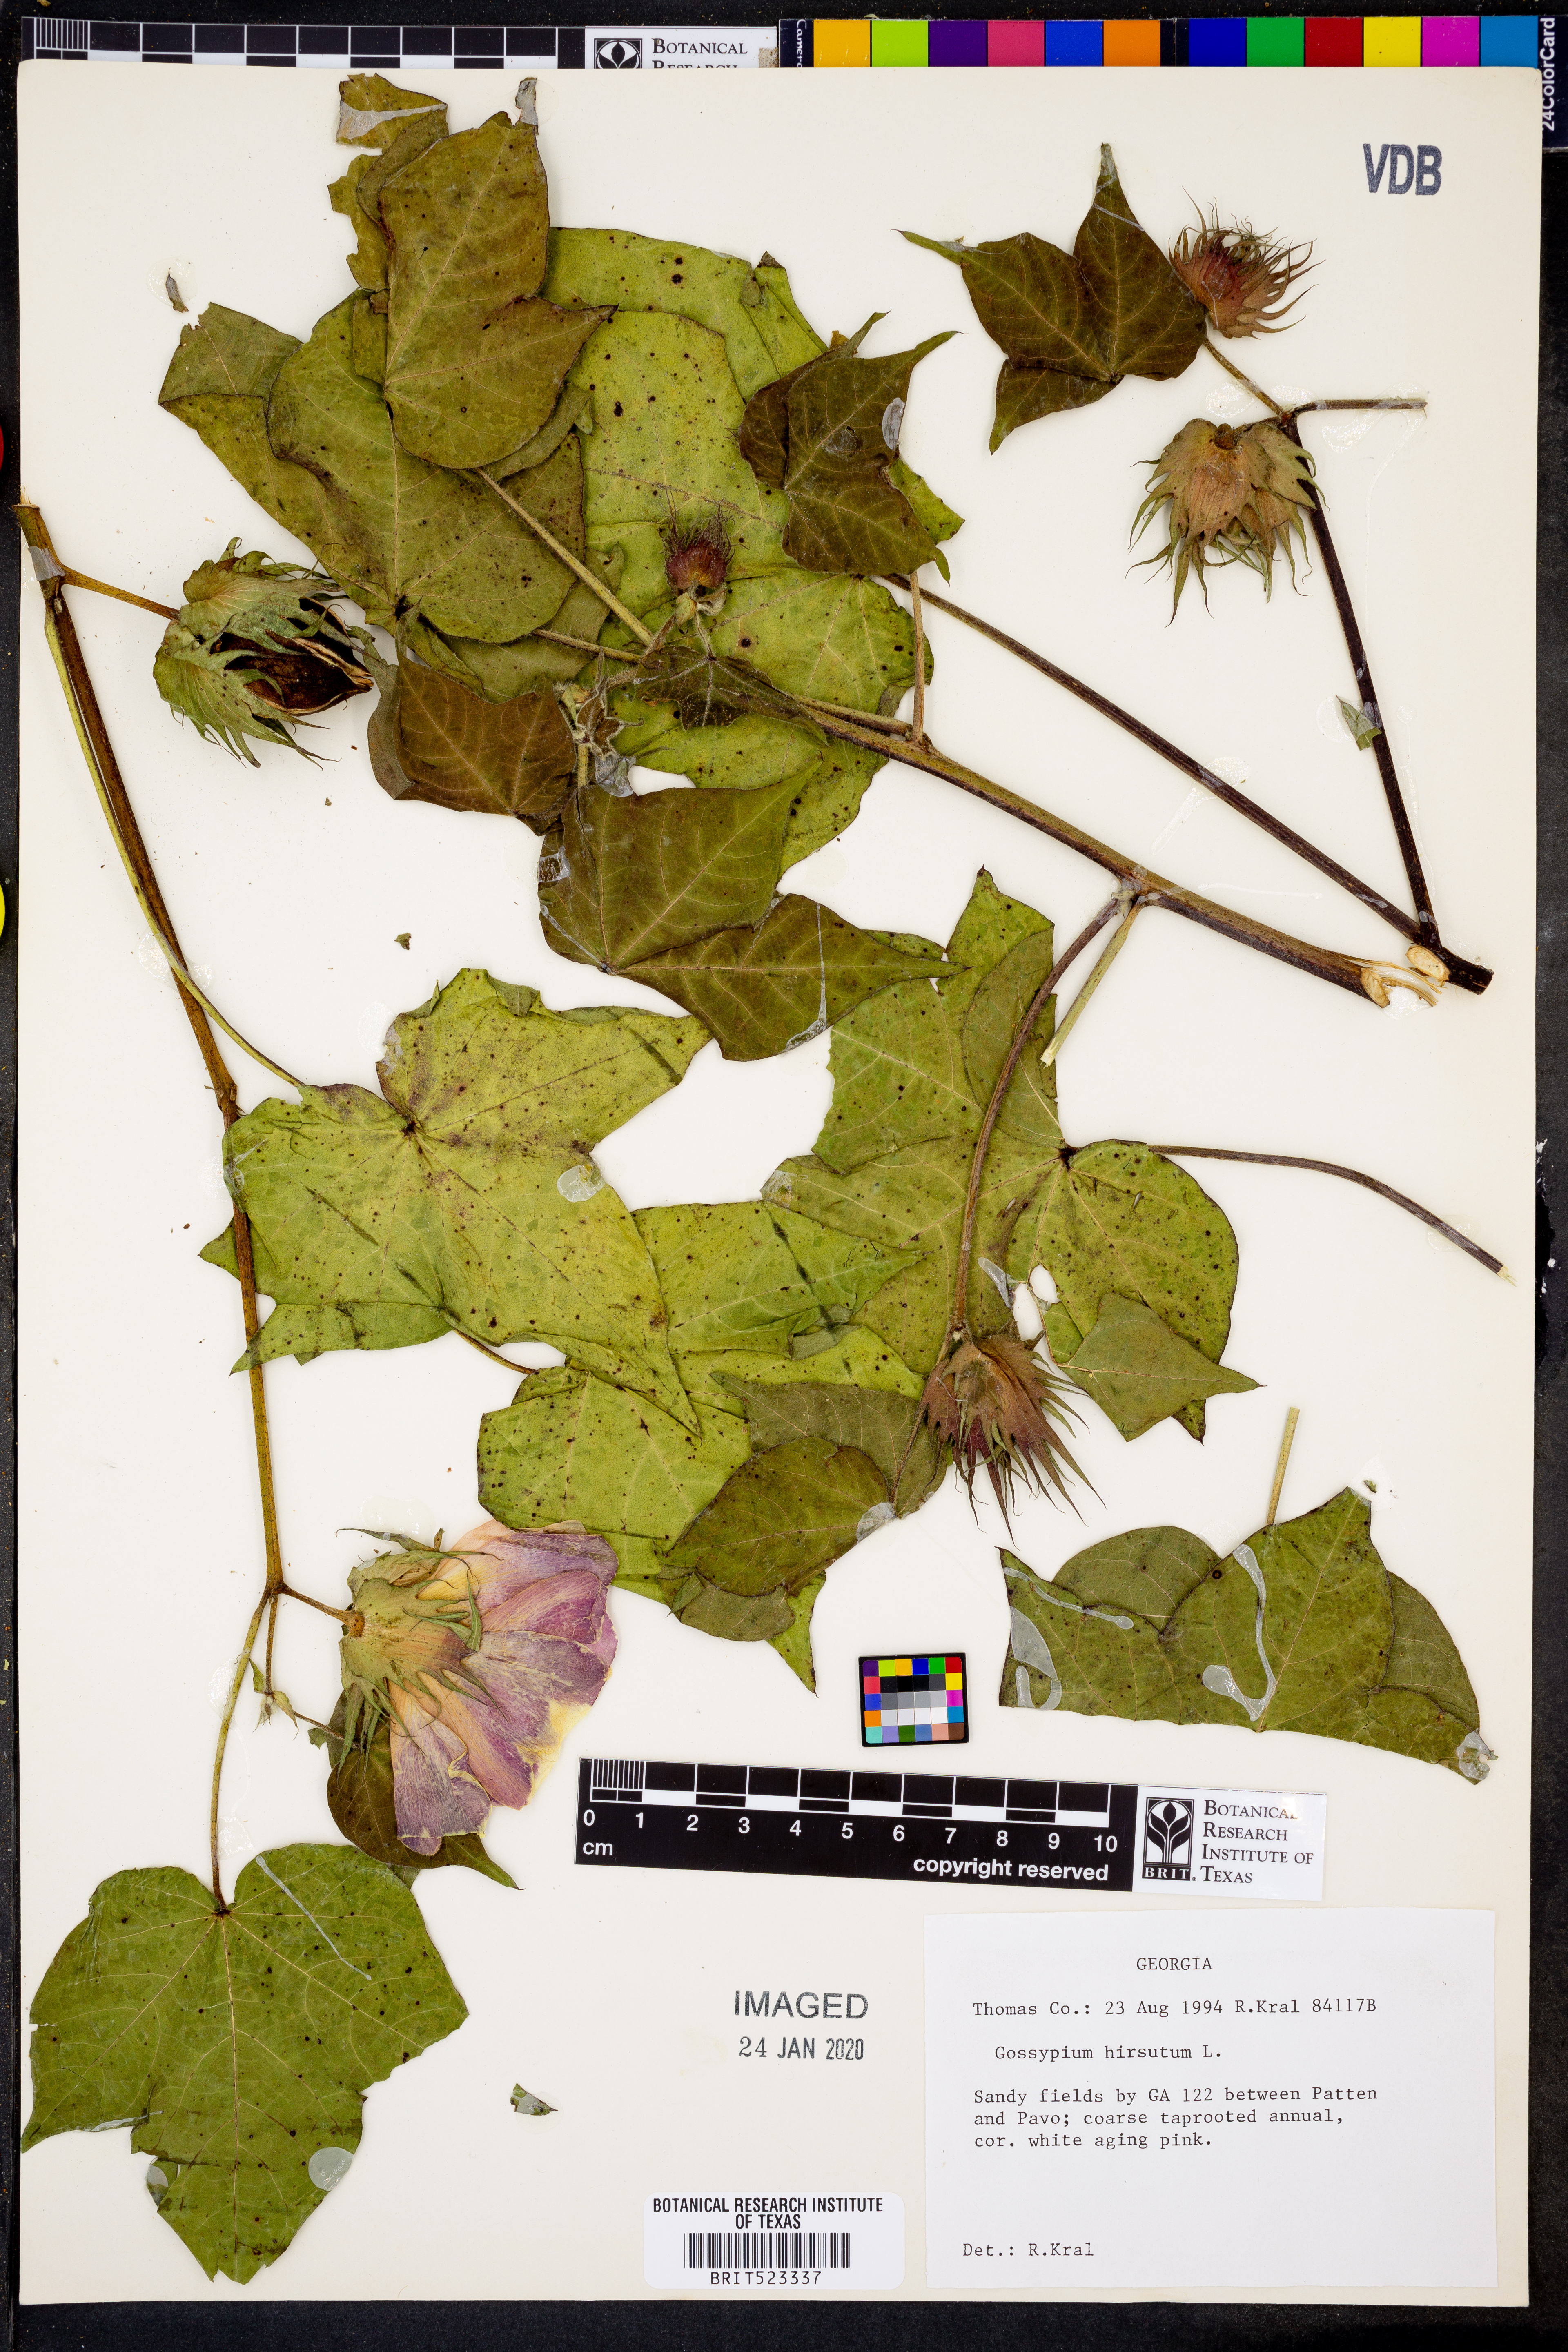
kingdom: Plantae
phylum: Tracheophyta
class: Magnoliopsida
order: Malvales
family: Malvaceae
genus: Gossypium
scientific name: Gossypium hirsutum
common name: Cotton
